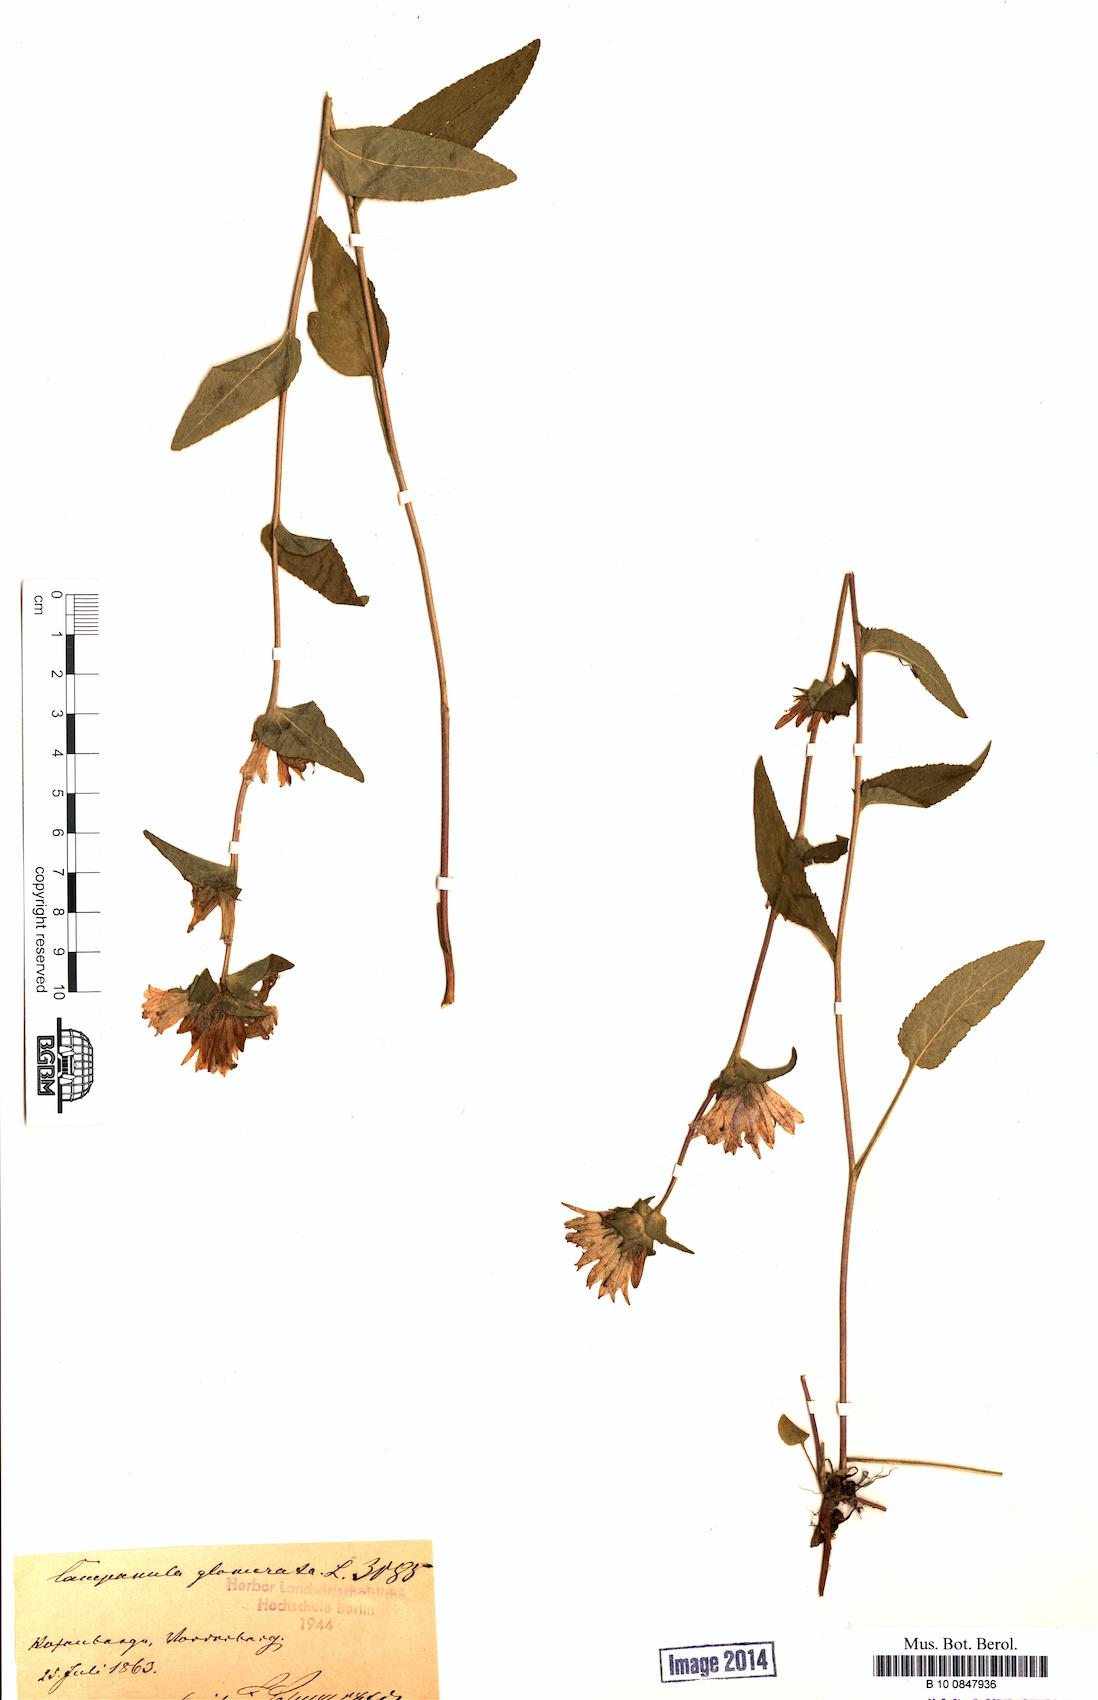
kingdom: Plantae
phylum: Tracheophyta
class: Magnoliopsida
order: Asterales
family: Campanulaceae
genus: Campanula
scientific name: Campanula glomerata
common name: Clustered bellflower
